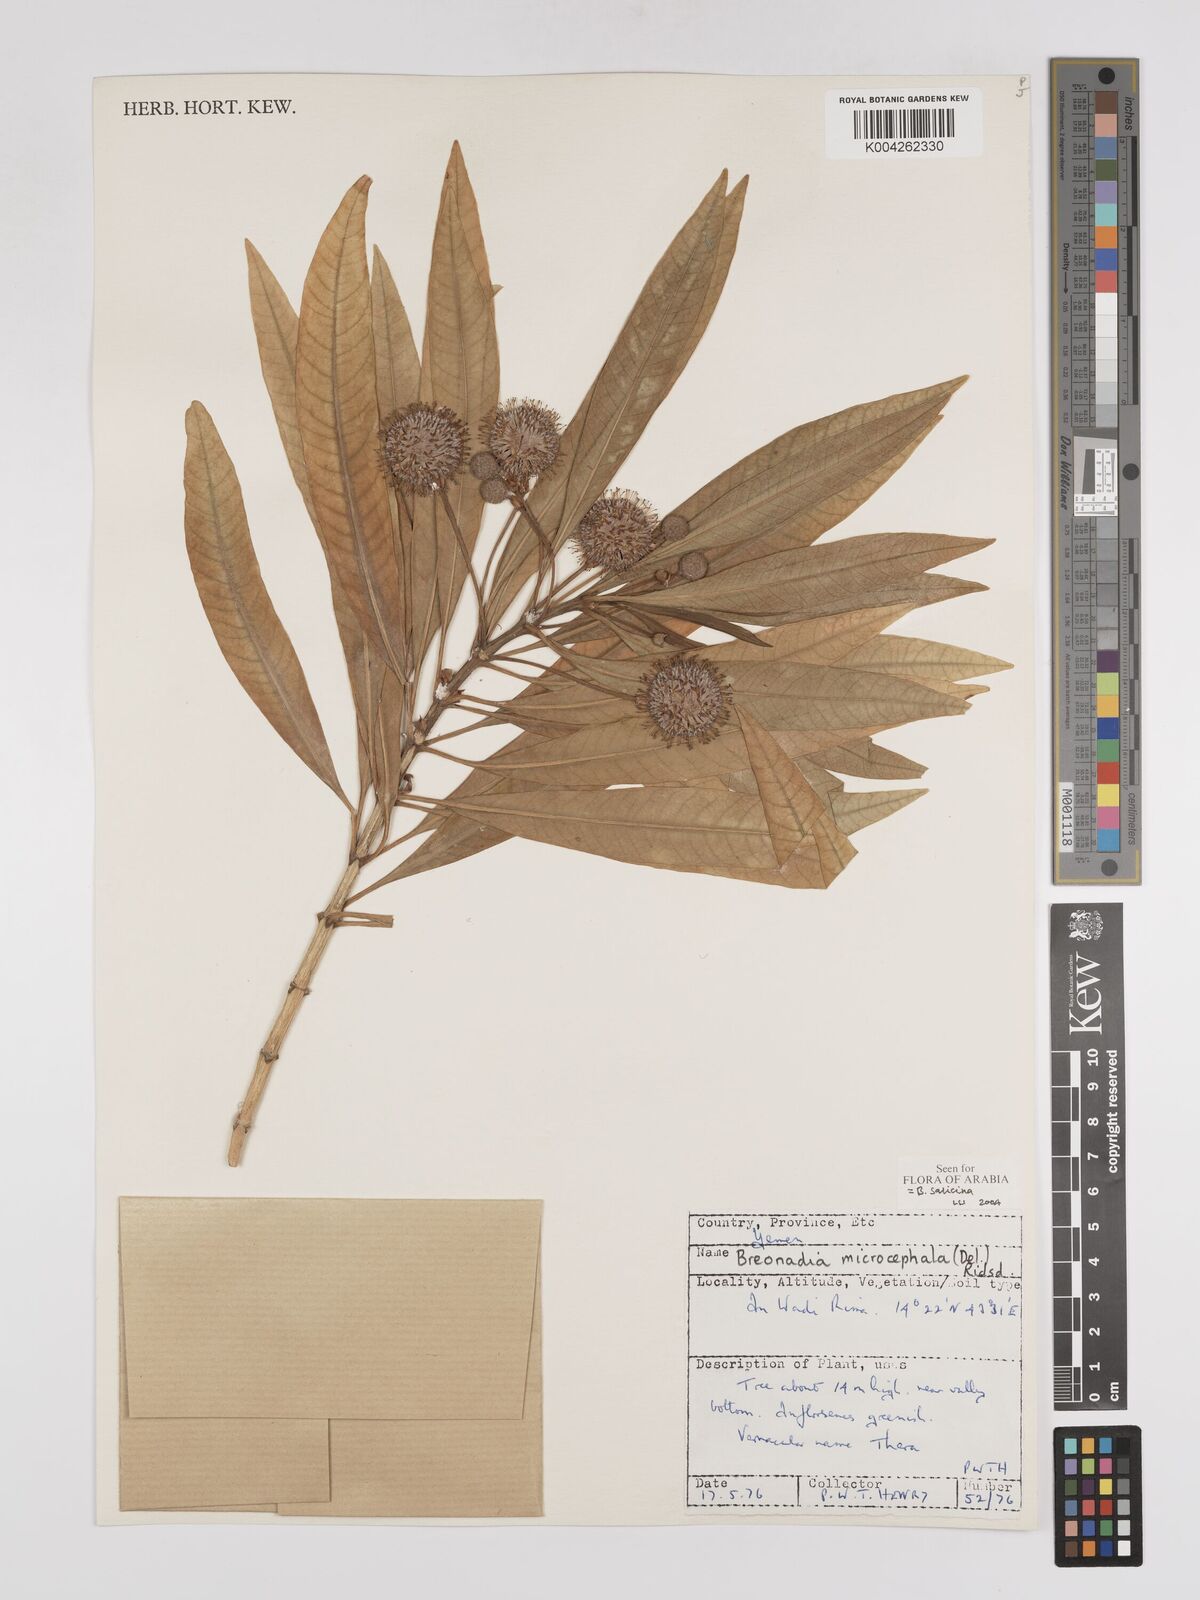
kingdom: Plantae
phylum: Tracheophyta
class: Magnoliopsida
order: Gentianales
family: Rubiaceae
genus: Breonadia
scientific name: Breonadia salicina
